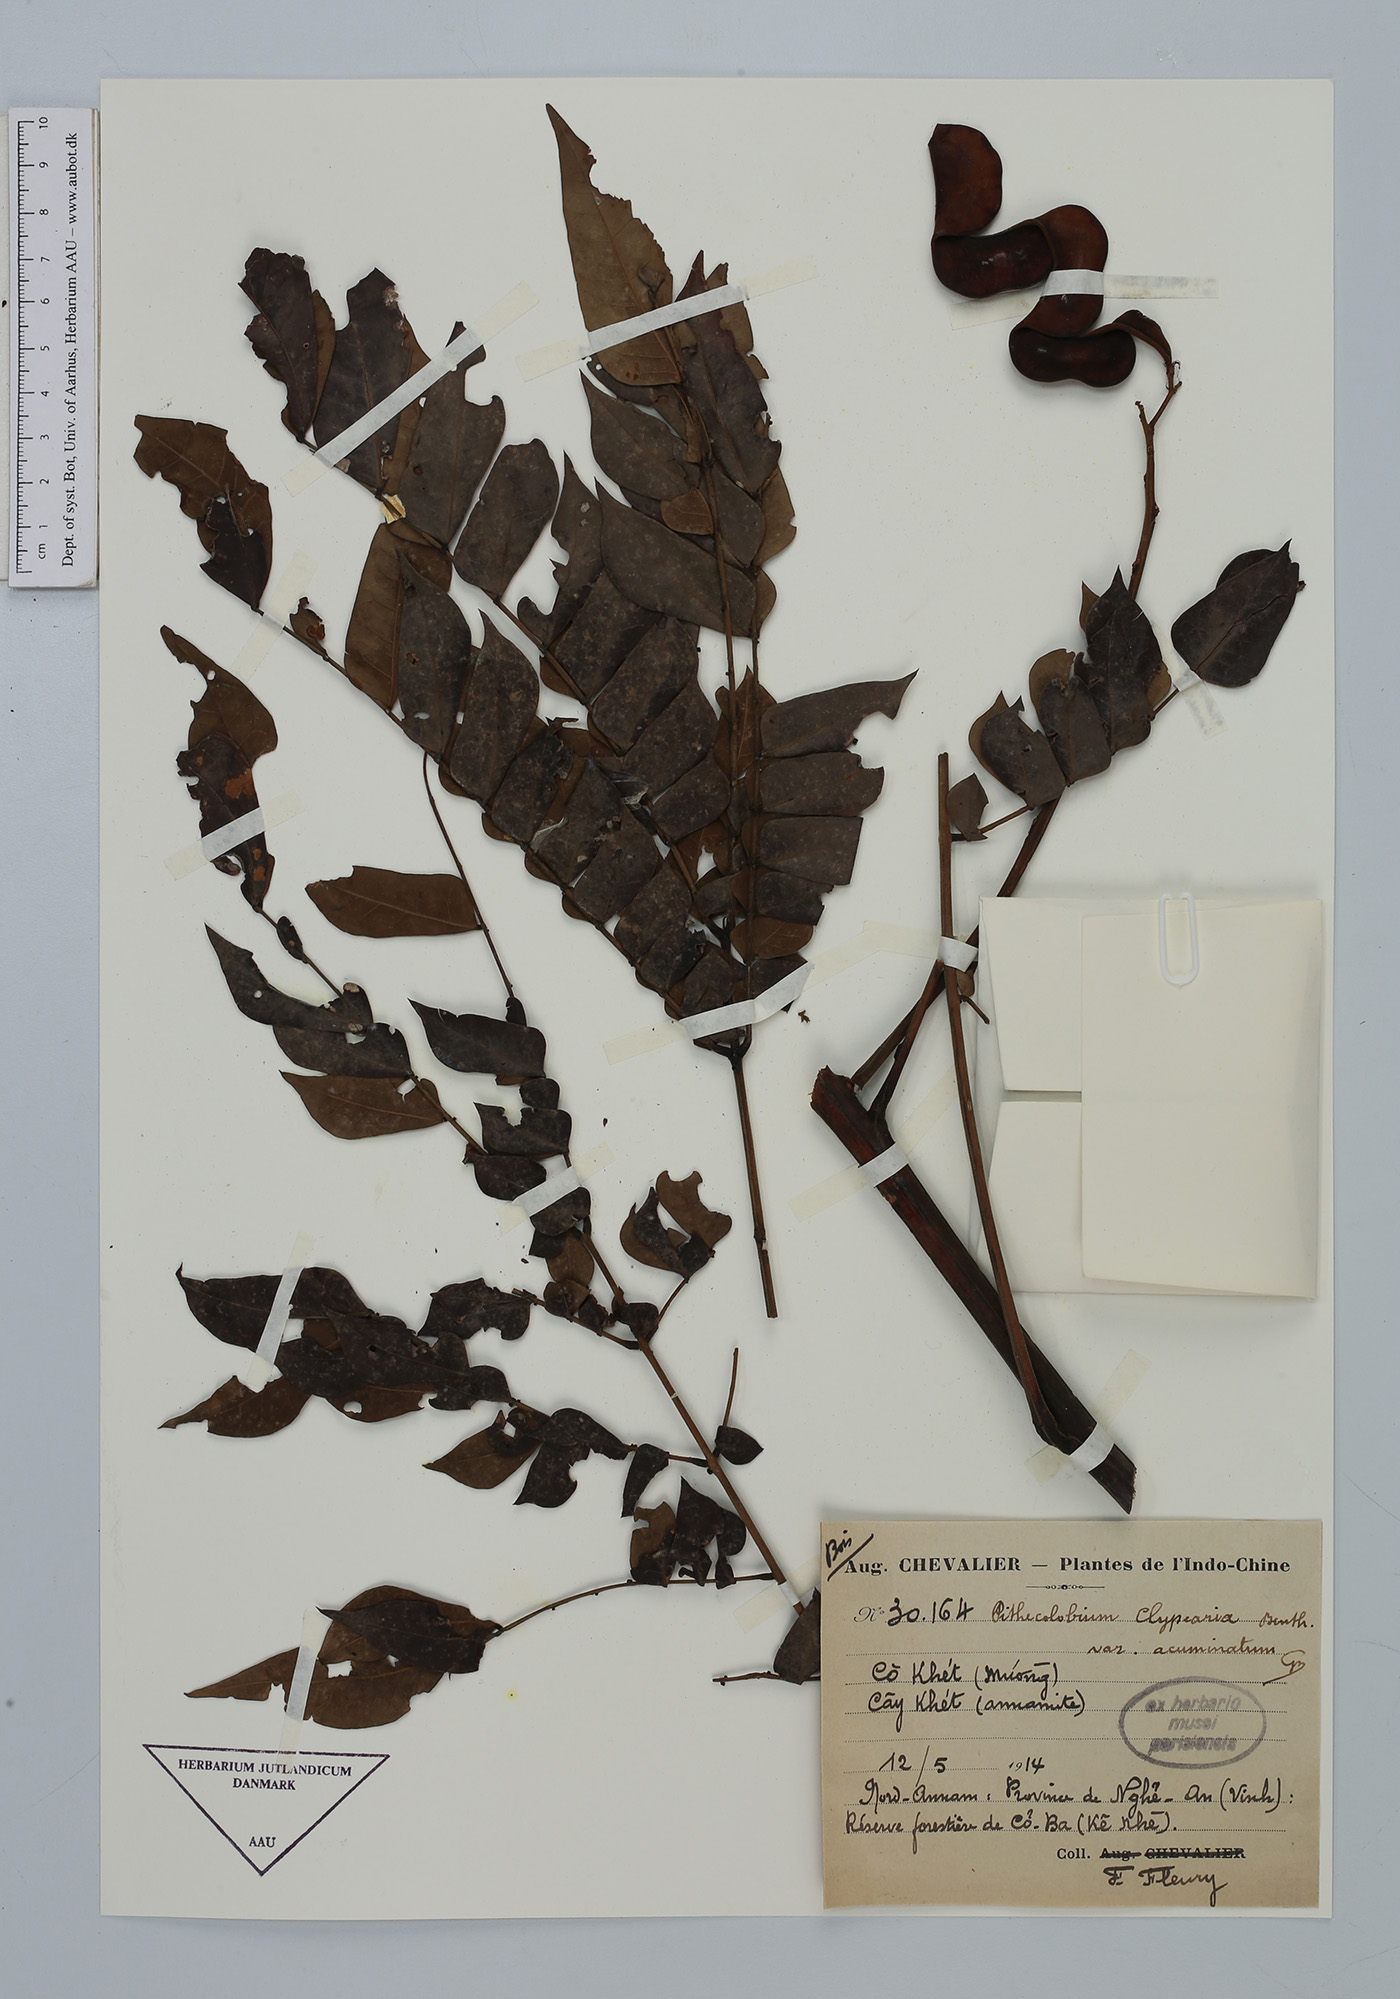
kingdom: Plantae
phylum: Tracheophyta
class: Magnoliopsida
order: Fabales
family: Fabaceae
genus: Archidendron
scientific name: Archidendron clypearia
